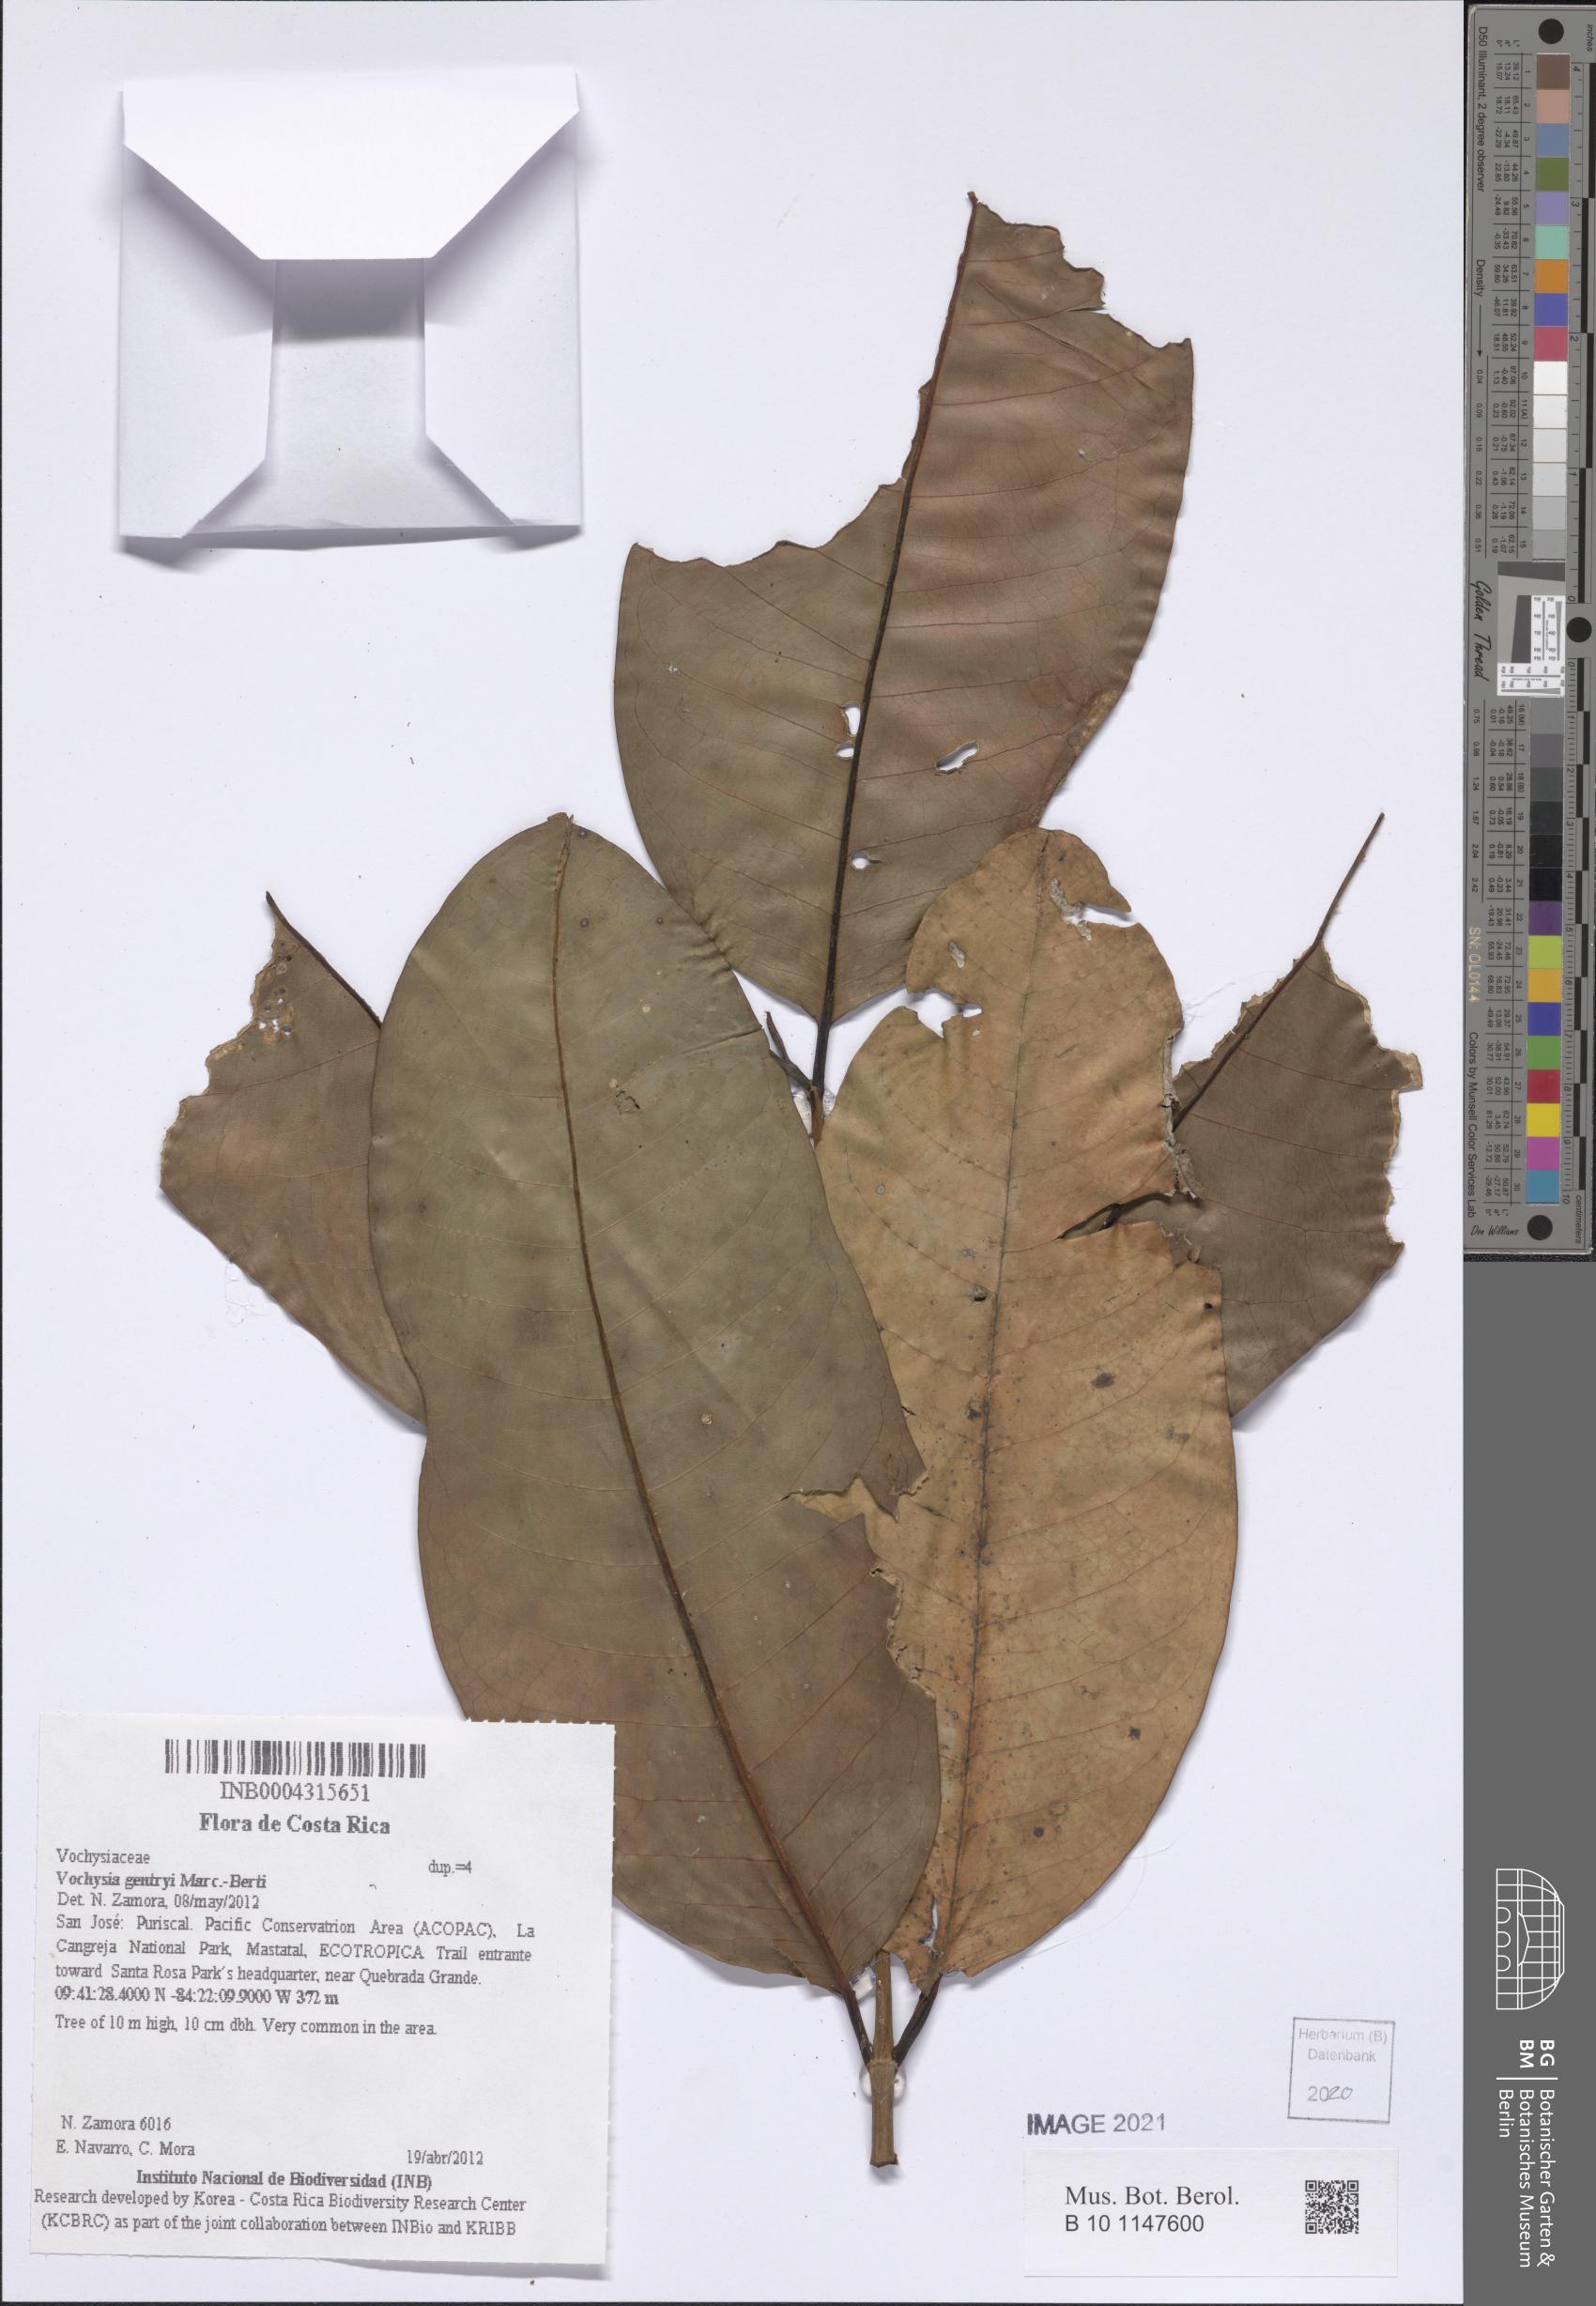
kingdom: Plantae
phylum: Tracheophyta
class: Magnoliopsida
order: Myrtales
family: Vochysiaceae
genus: Vochysia
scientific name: Vochysia gentryi
